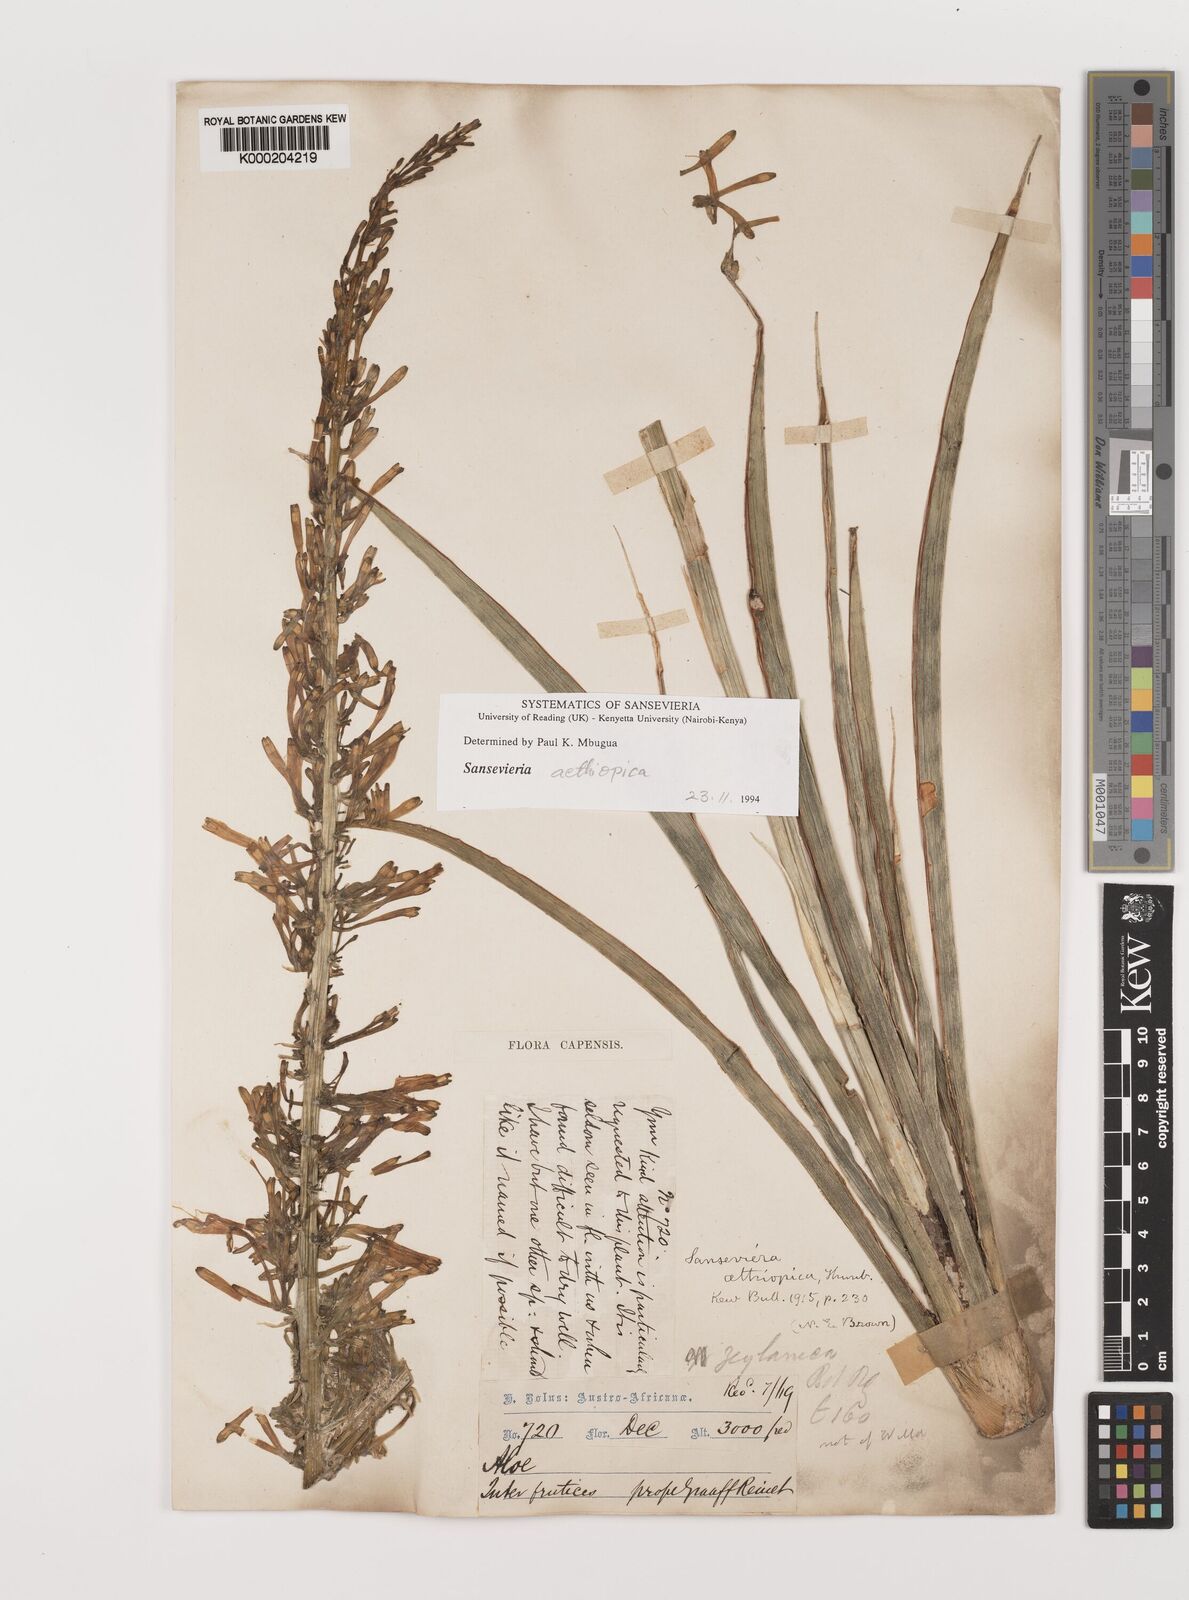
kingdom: Plantae
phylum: Tracheophyta
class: Liliopsida
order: Asparagales
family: Asparagaceae
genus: Dracaena
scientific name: Dracaena aethiopica
